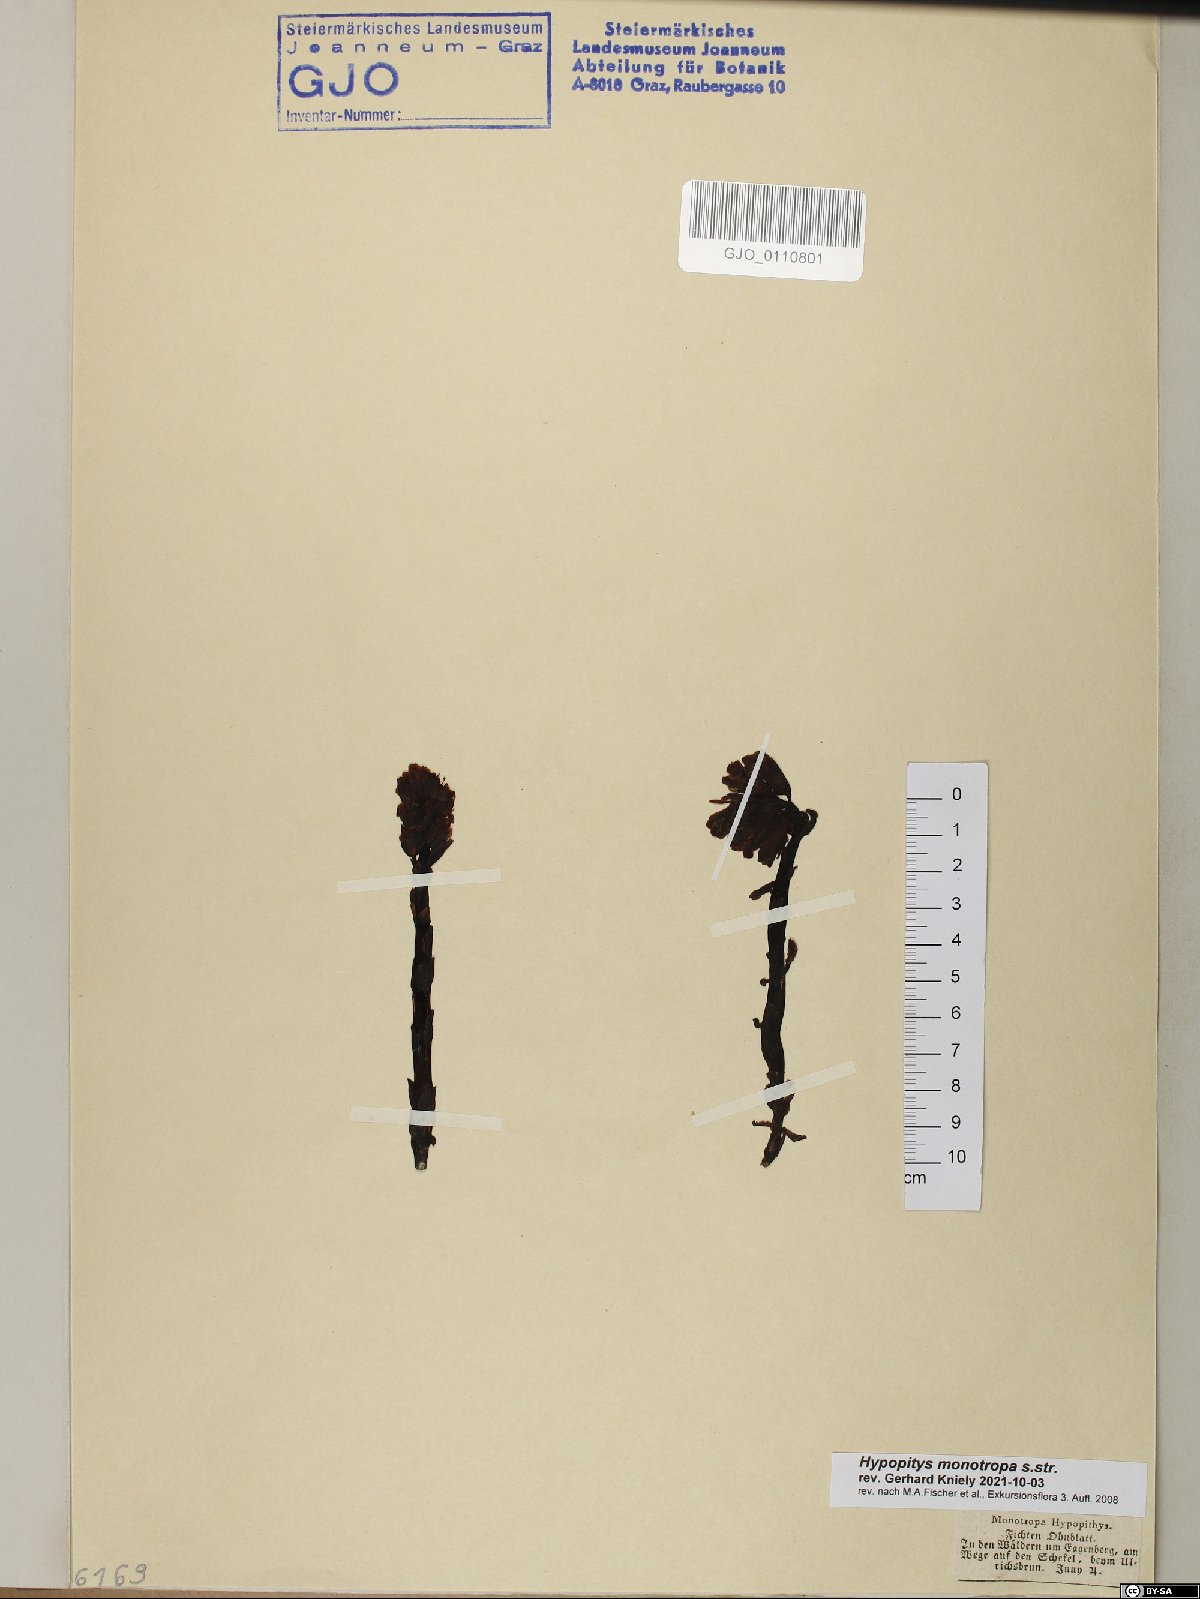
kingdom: Plantae
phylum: Tracheophyta
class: Magnoliopsida
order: Ericales
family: Ericaceae
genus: Hypopitys
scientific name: Hypopitys monotropa
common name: Yellow bird's-nest
